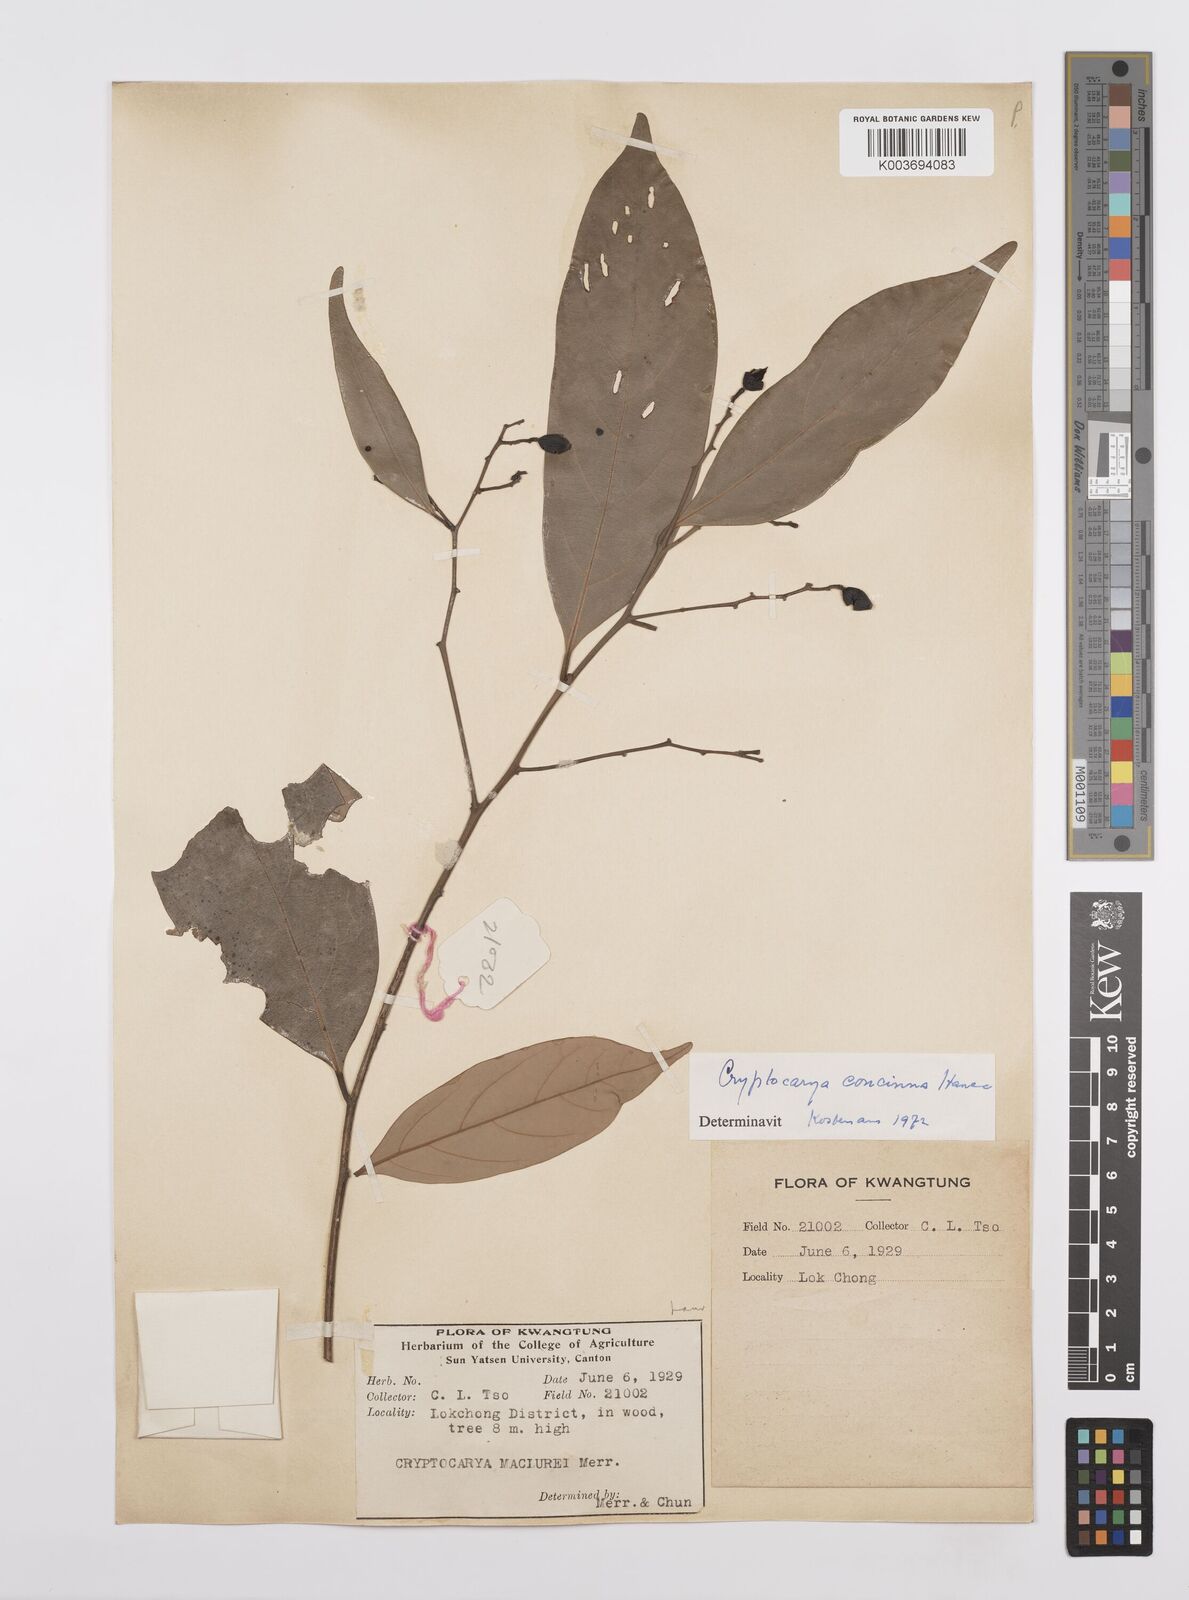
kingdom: Plantae
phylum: Tracheophyta
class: Magnoliopsida
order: Laurales
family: Lauraceae
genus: Cryptocarya
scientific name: Cryptocarya concinna
